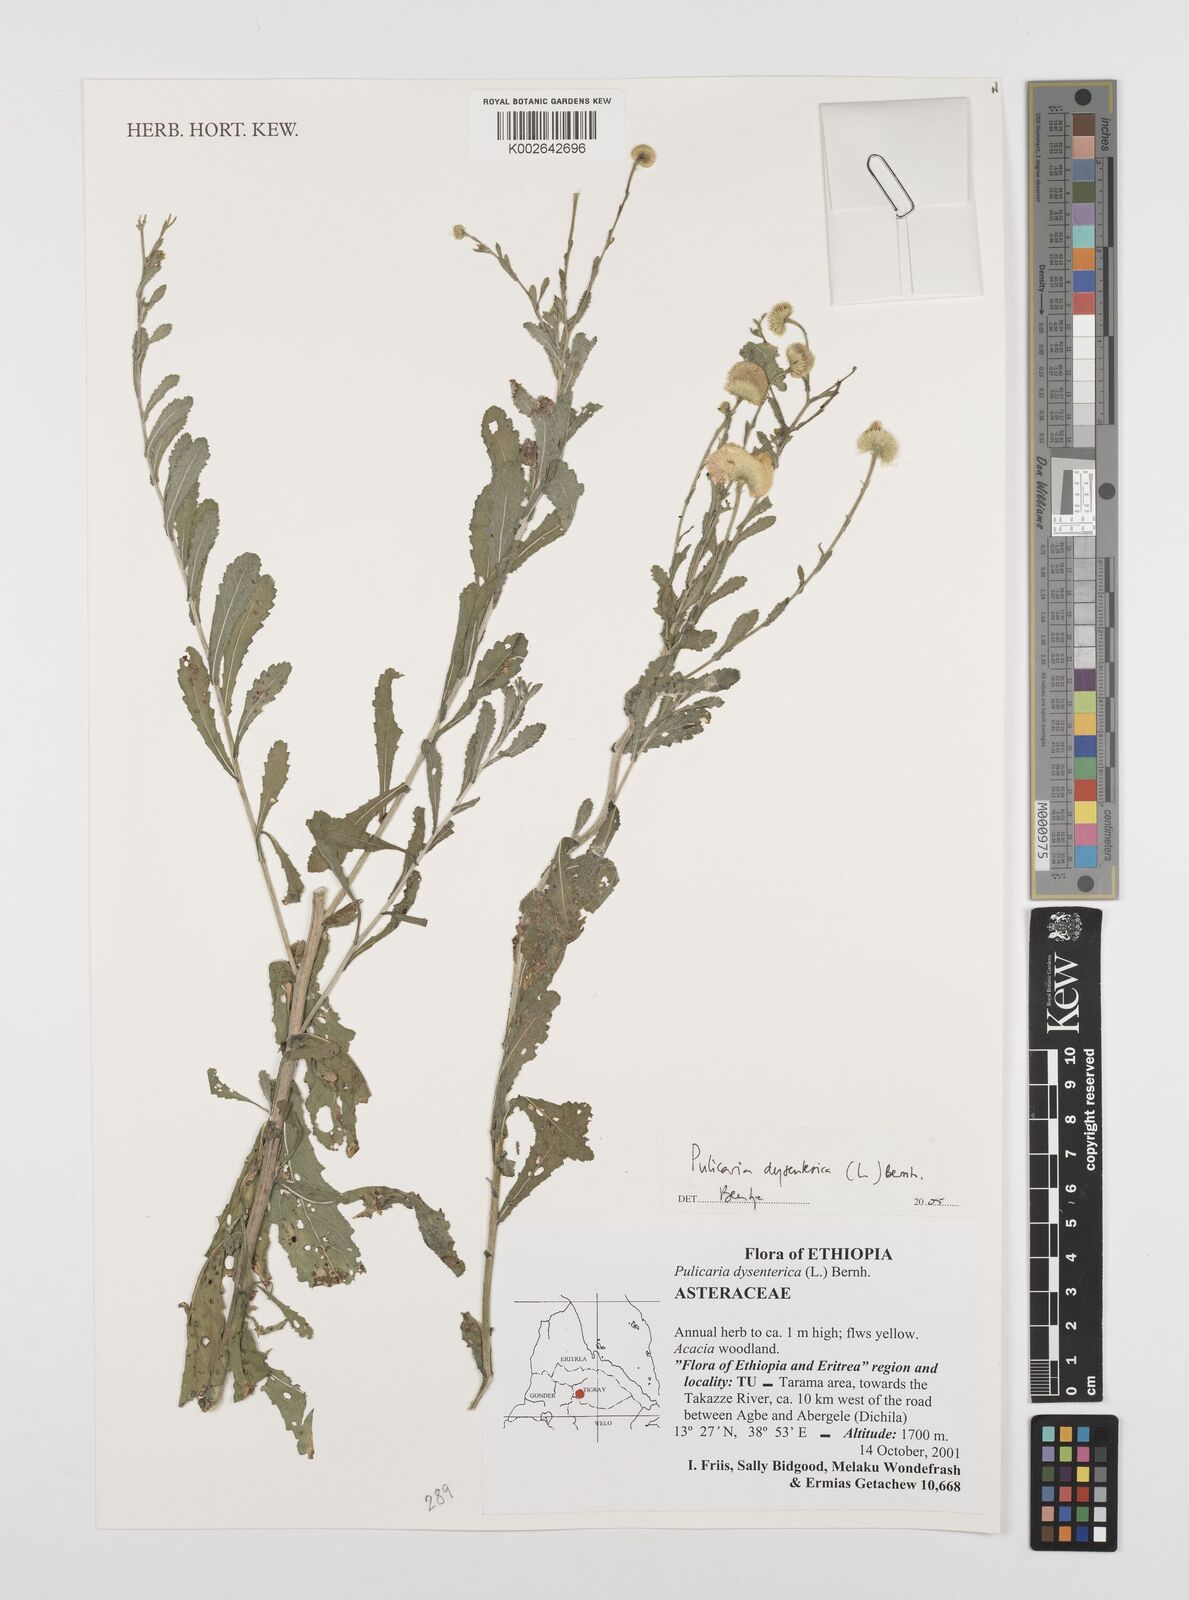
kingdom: Plantae
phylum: Tracheophyta
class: Magnoliopsida
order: Asterales
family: Asteraceae
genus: Pulicaria
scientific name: Pulicaria dysenterica
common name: Common fleabane
